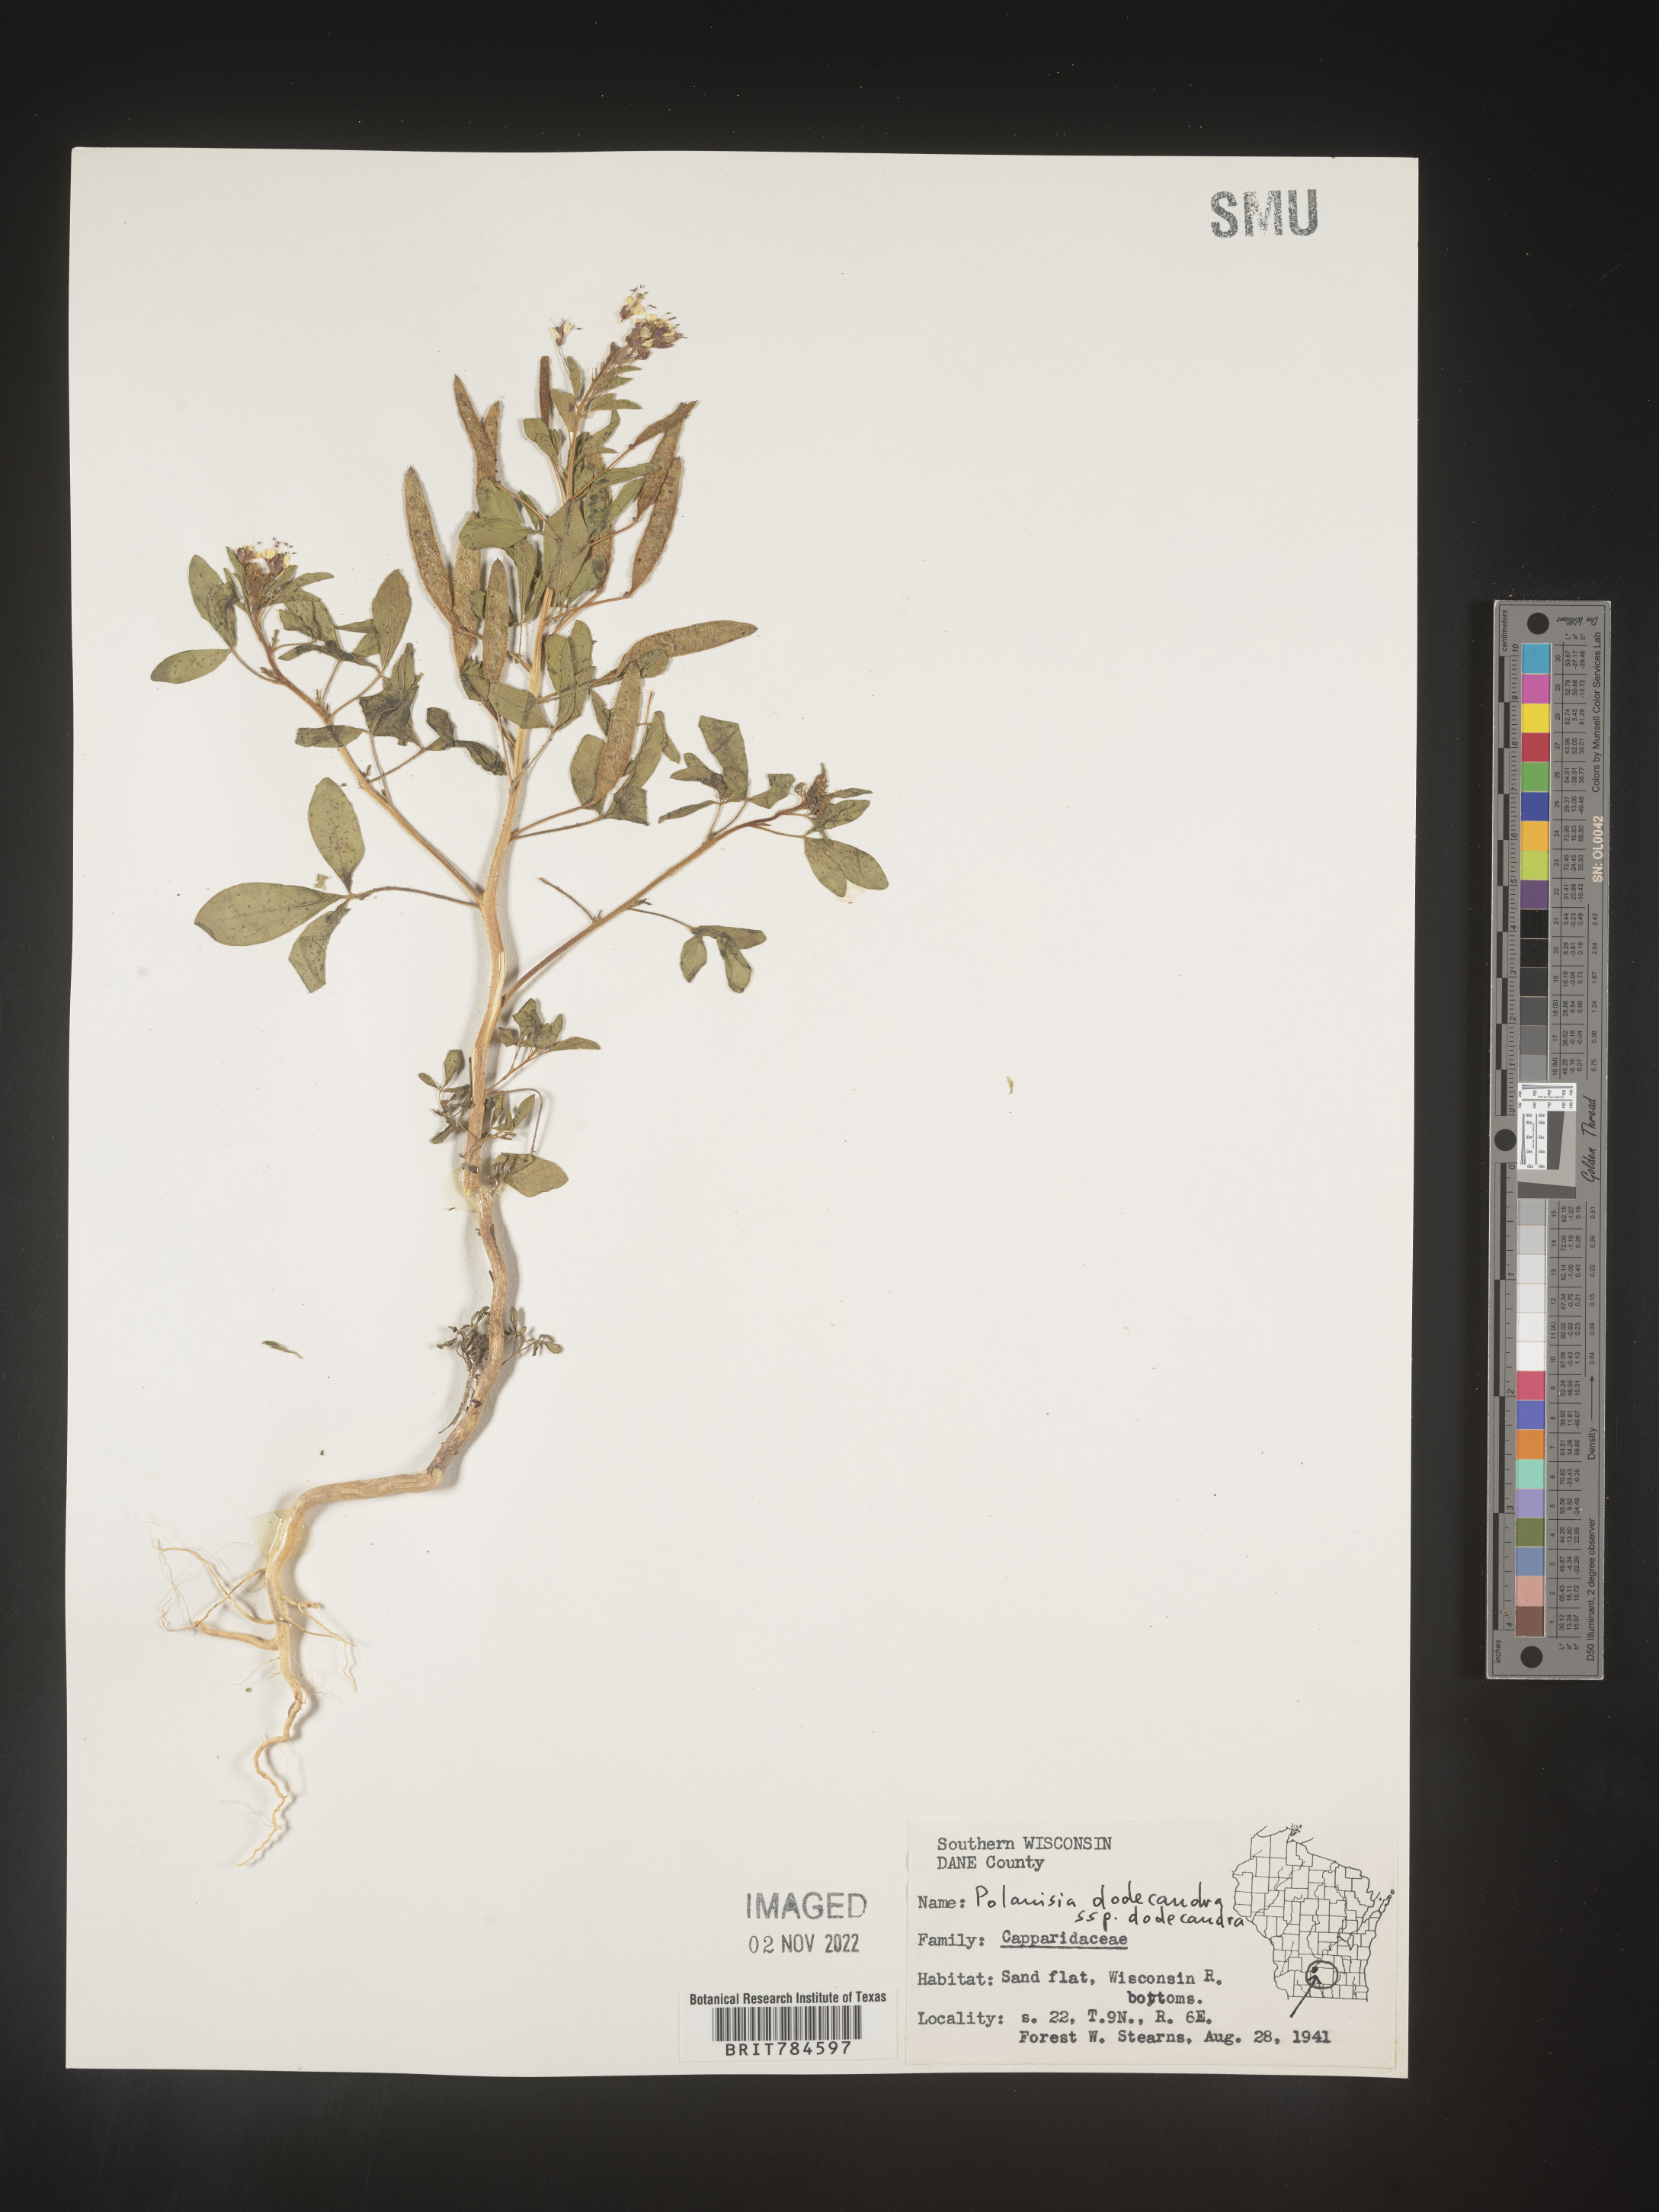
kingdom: Plantae
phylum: Tracheophyta
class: Magnoliopsida
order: Brassicales
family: Cleomaceae
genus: Polanisia
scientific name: Polanisia dodecandra
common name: Clammyweed
